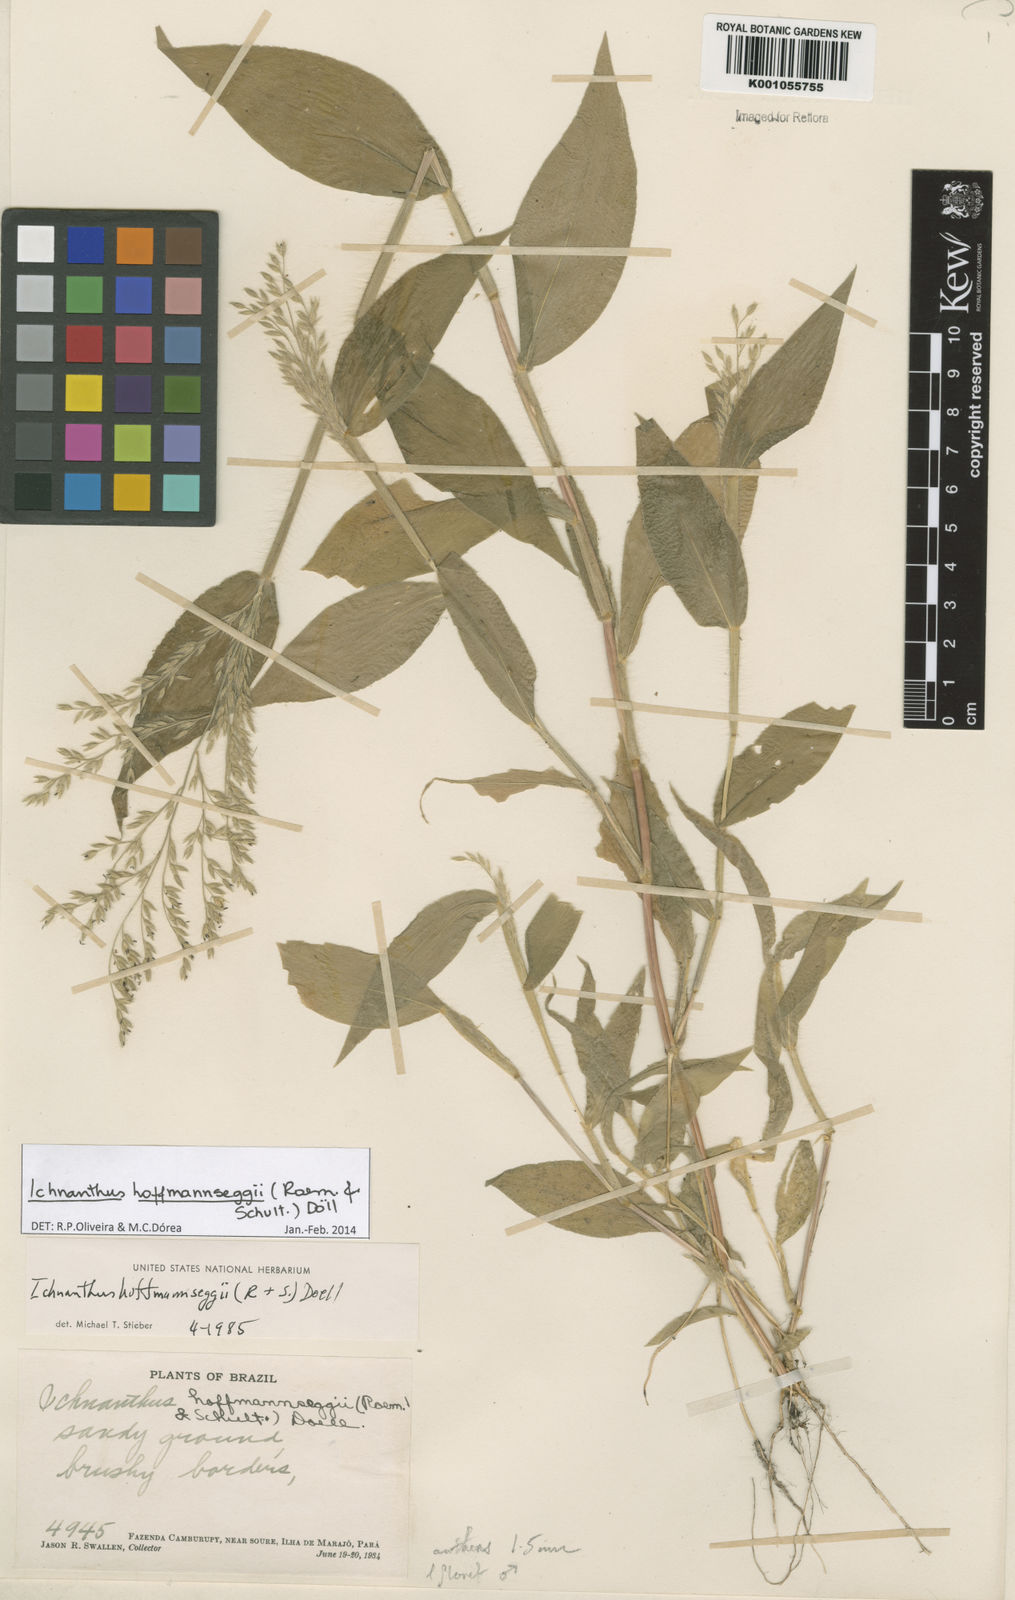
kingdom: Plantae
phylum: Tracheophyta
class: Liliopsida
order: Poales
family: Poaceae
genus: Ichnanthus
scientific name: Ichnanthus
